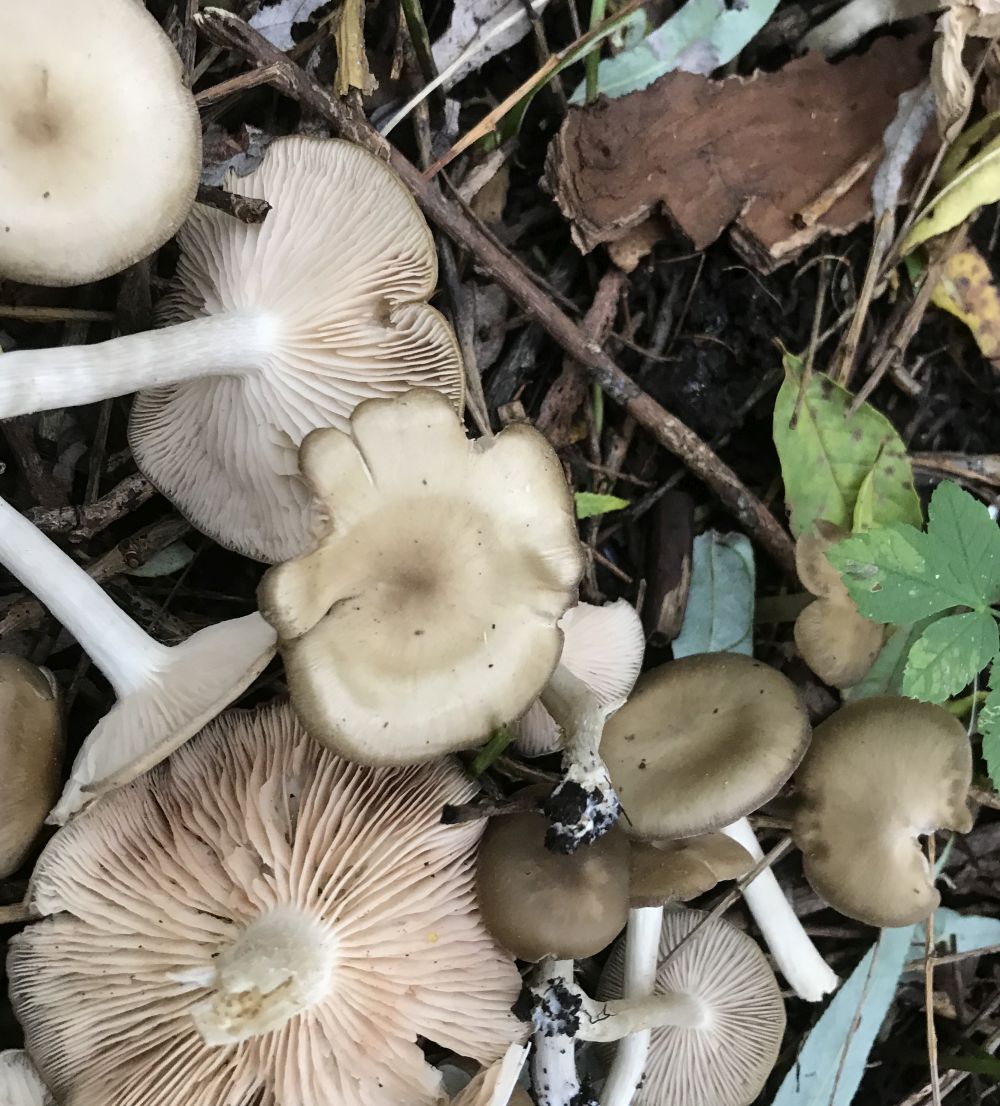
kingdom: Fungi
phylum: Basidiomycota
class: Agaricomycetes
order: Agaricales
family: Entolomataceae
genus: Entoloma
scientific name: Entoloma
